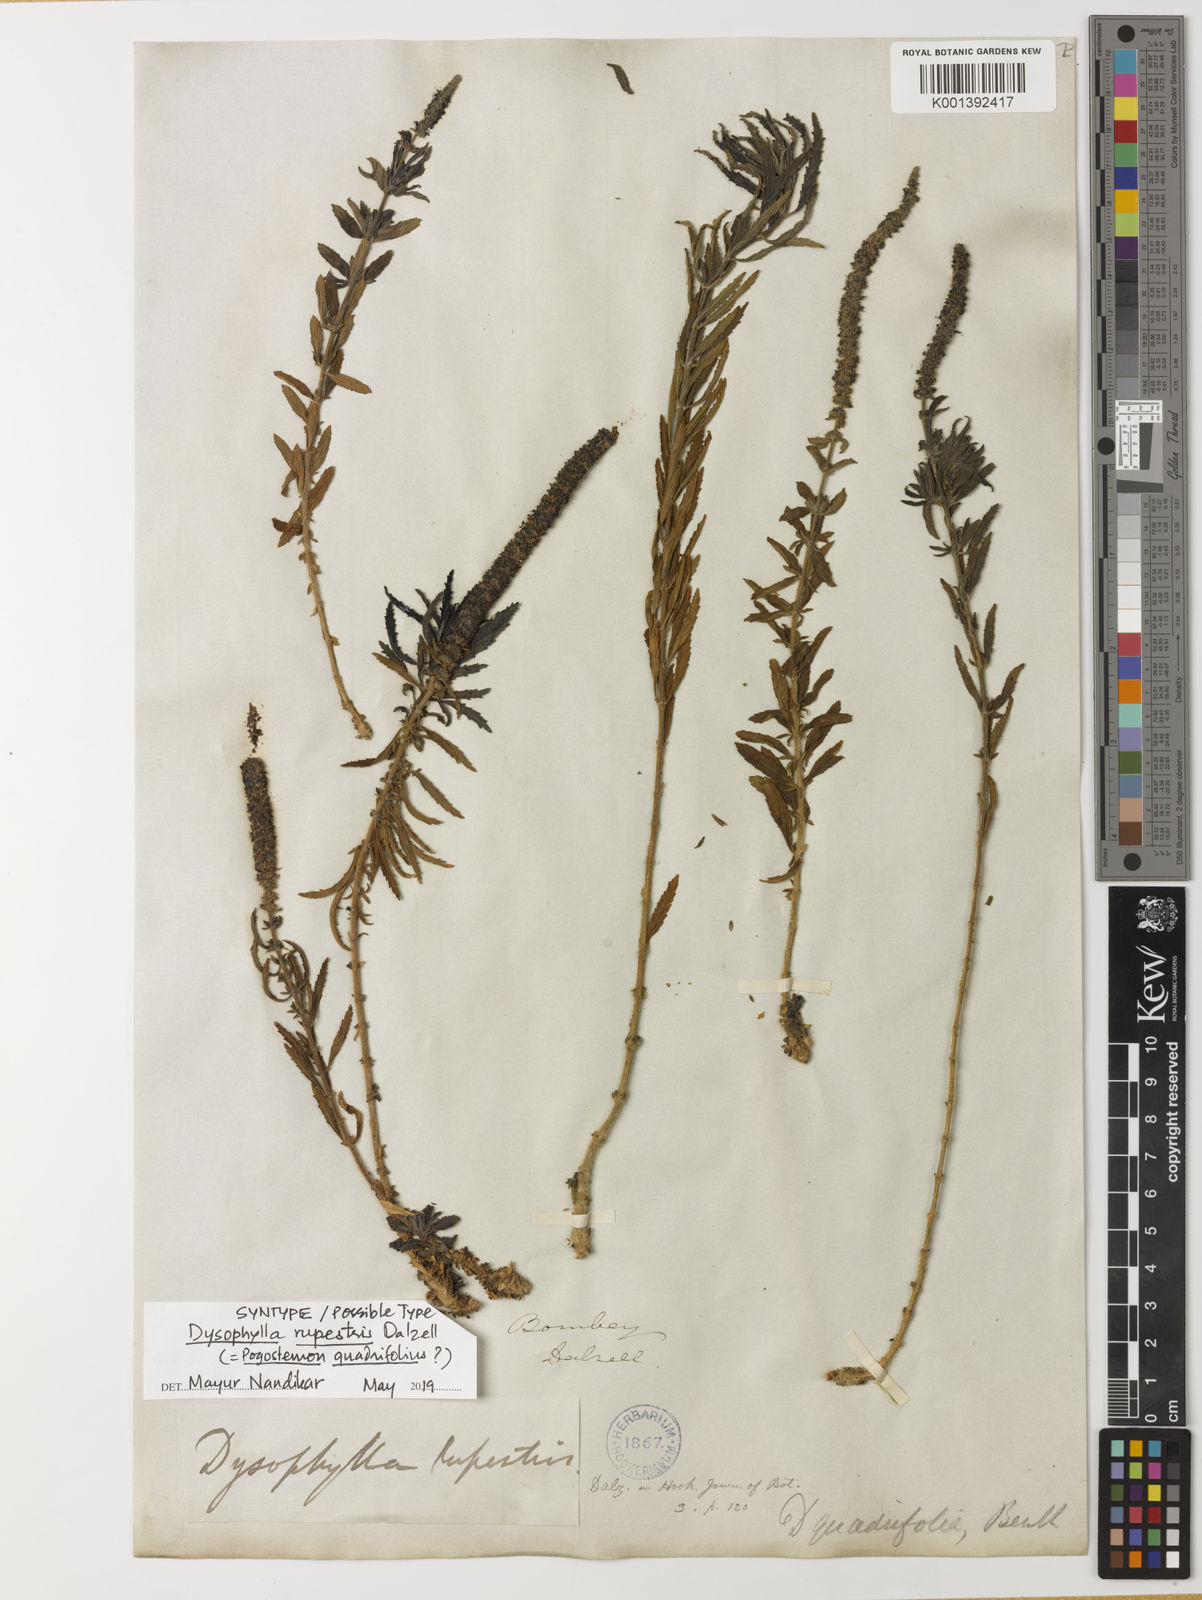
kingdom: Plantae
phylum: Tracheophyta
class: Magnoliopsida
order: Lamiales
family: Lamiaceae
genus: Pogostemon
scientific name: Pogostemon quadrifolius
